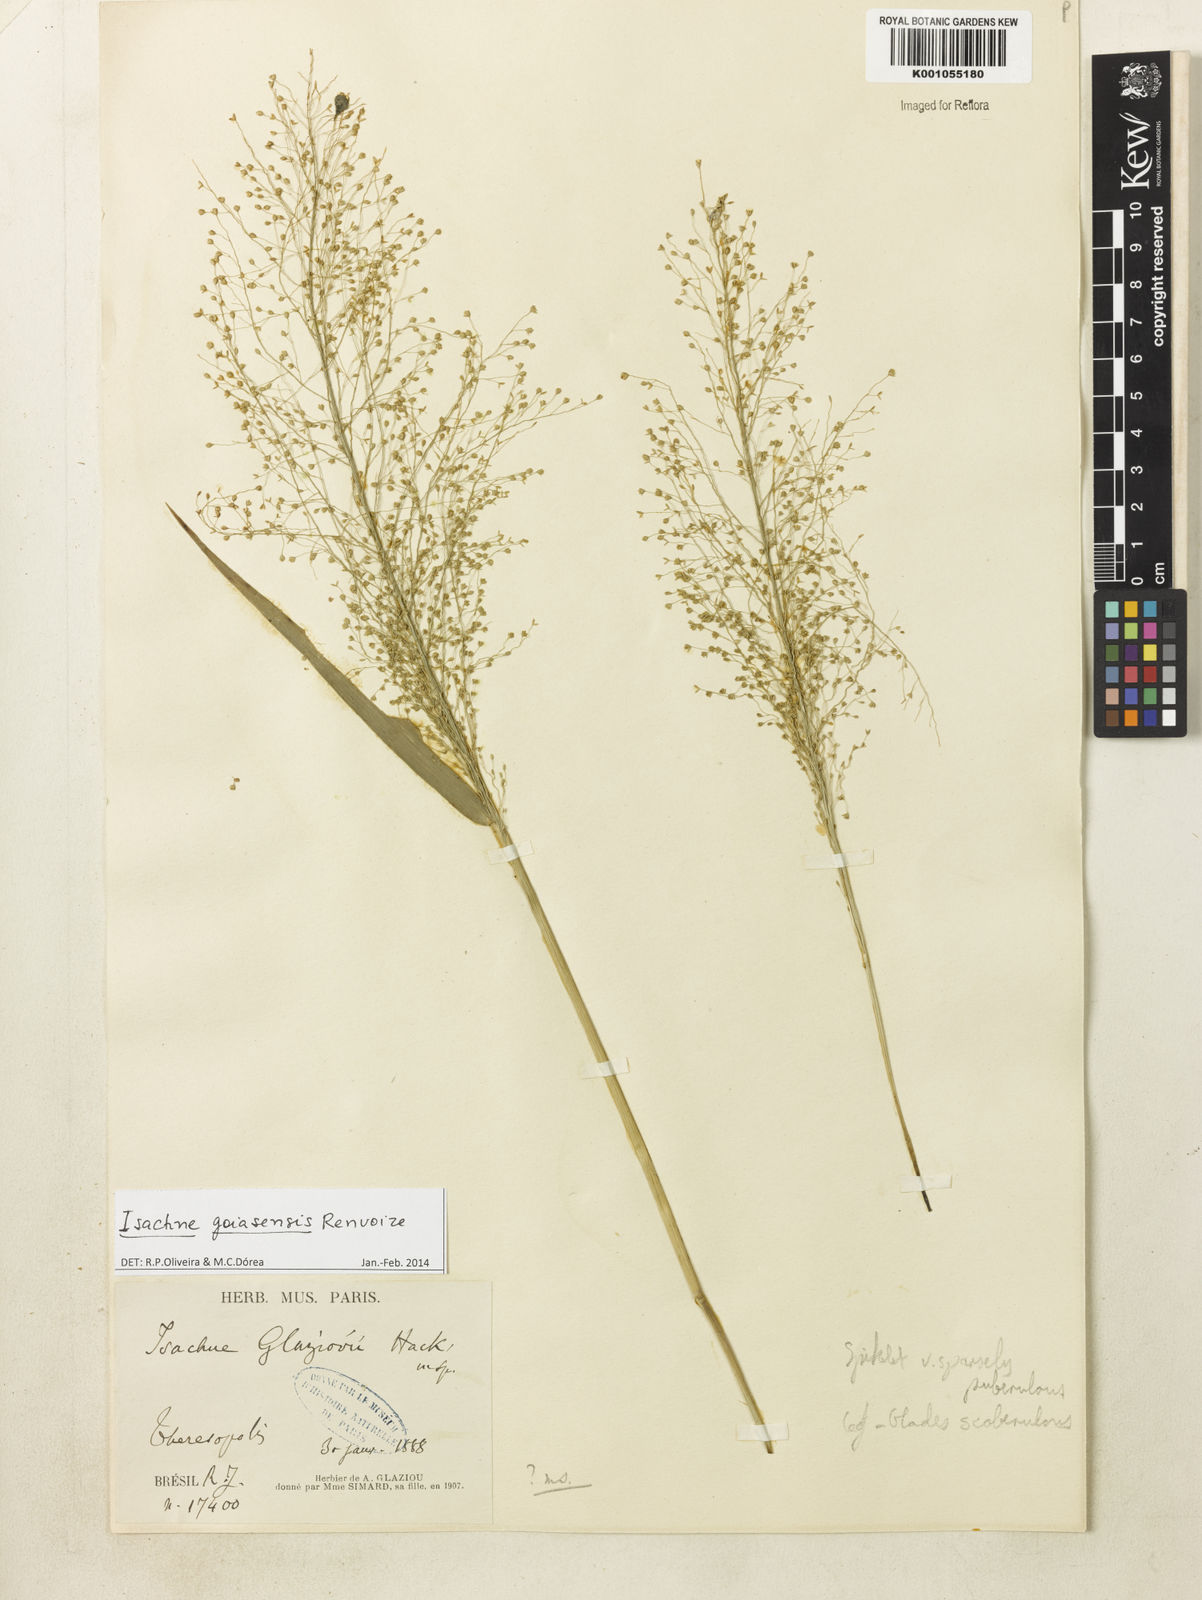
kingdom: Plantae
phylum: Tracheophyta
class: Liliopsida
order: Poales
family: Poaceae
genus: Isachne
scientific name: Isachne goiasensis
